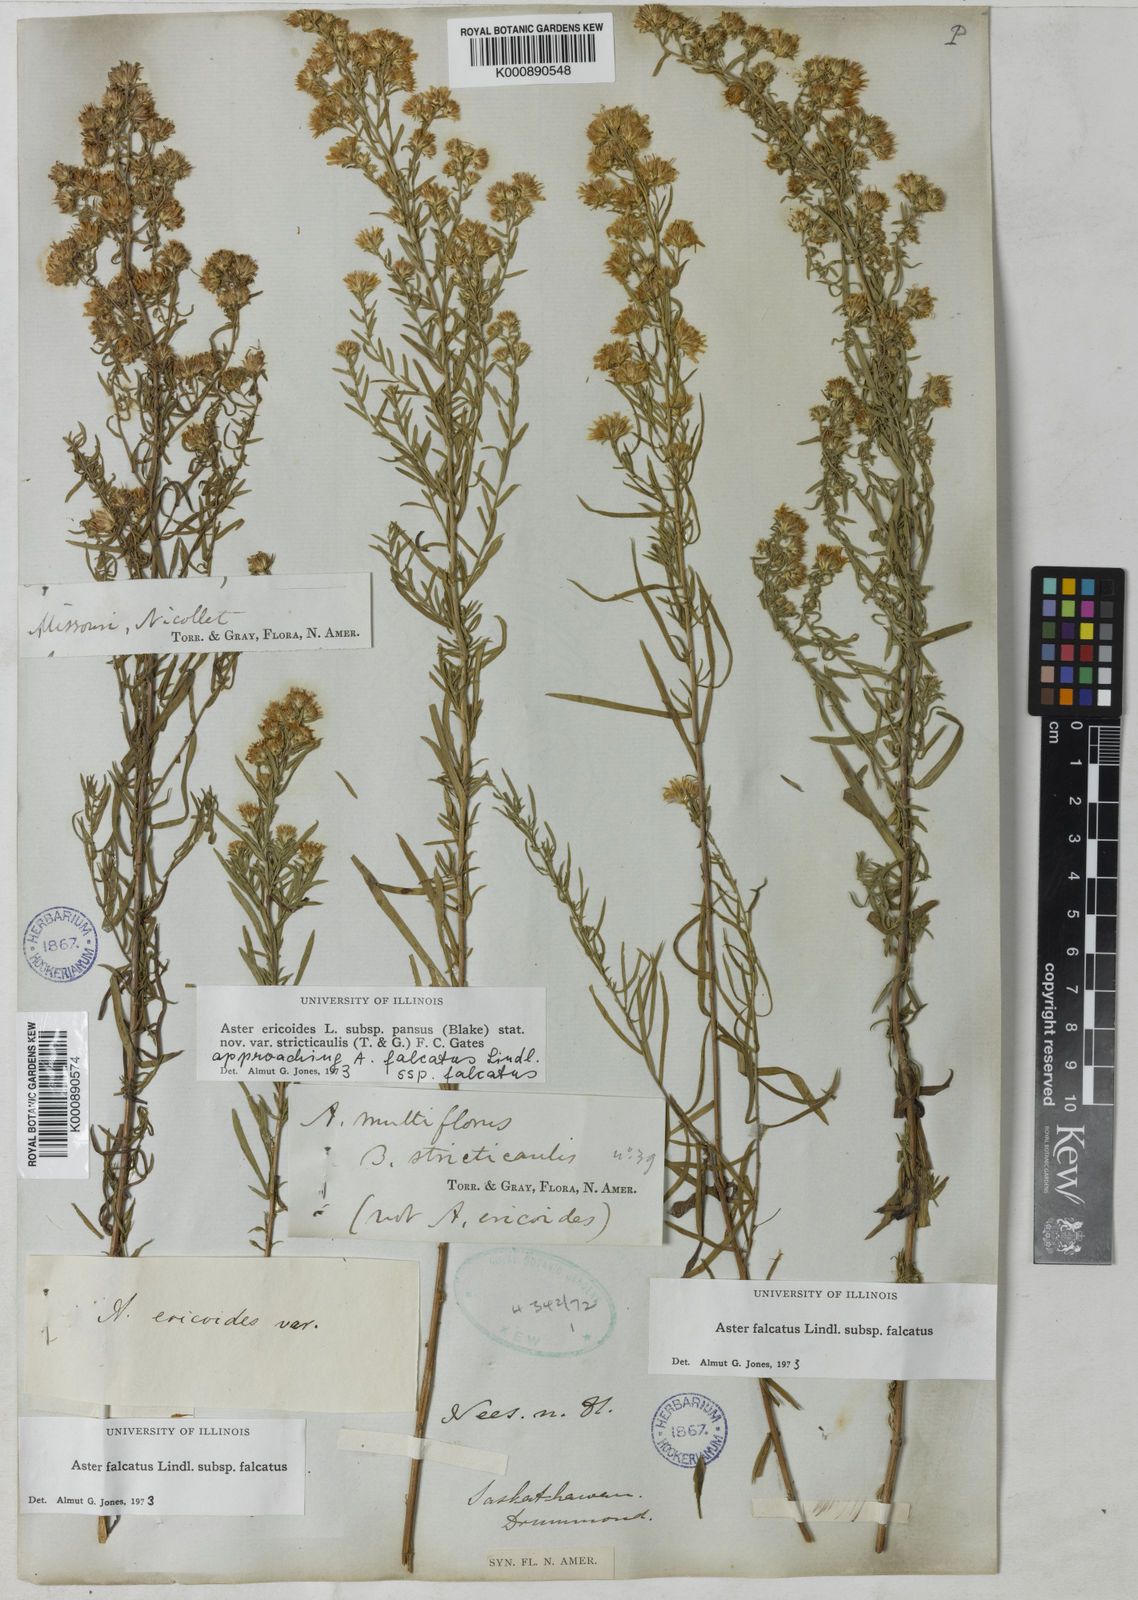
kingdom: Plantae
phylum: Tracheophyta
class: Magnoliopsida
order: Asterales
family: Asteraceae
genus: Aster
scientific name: Aster
